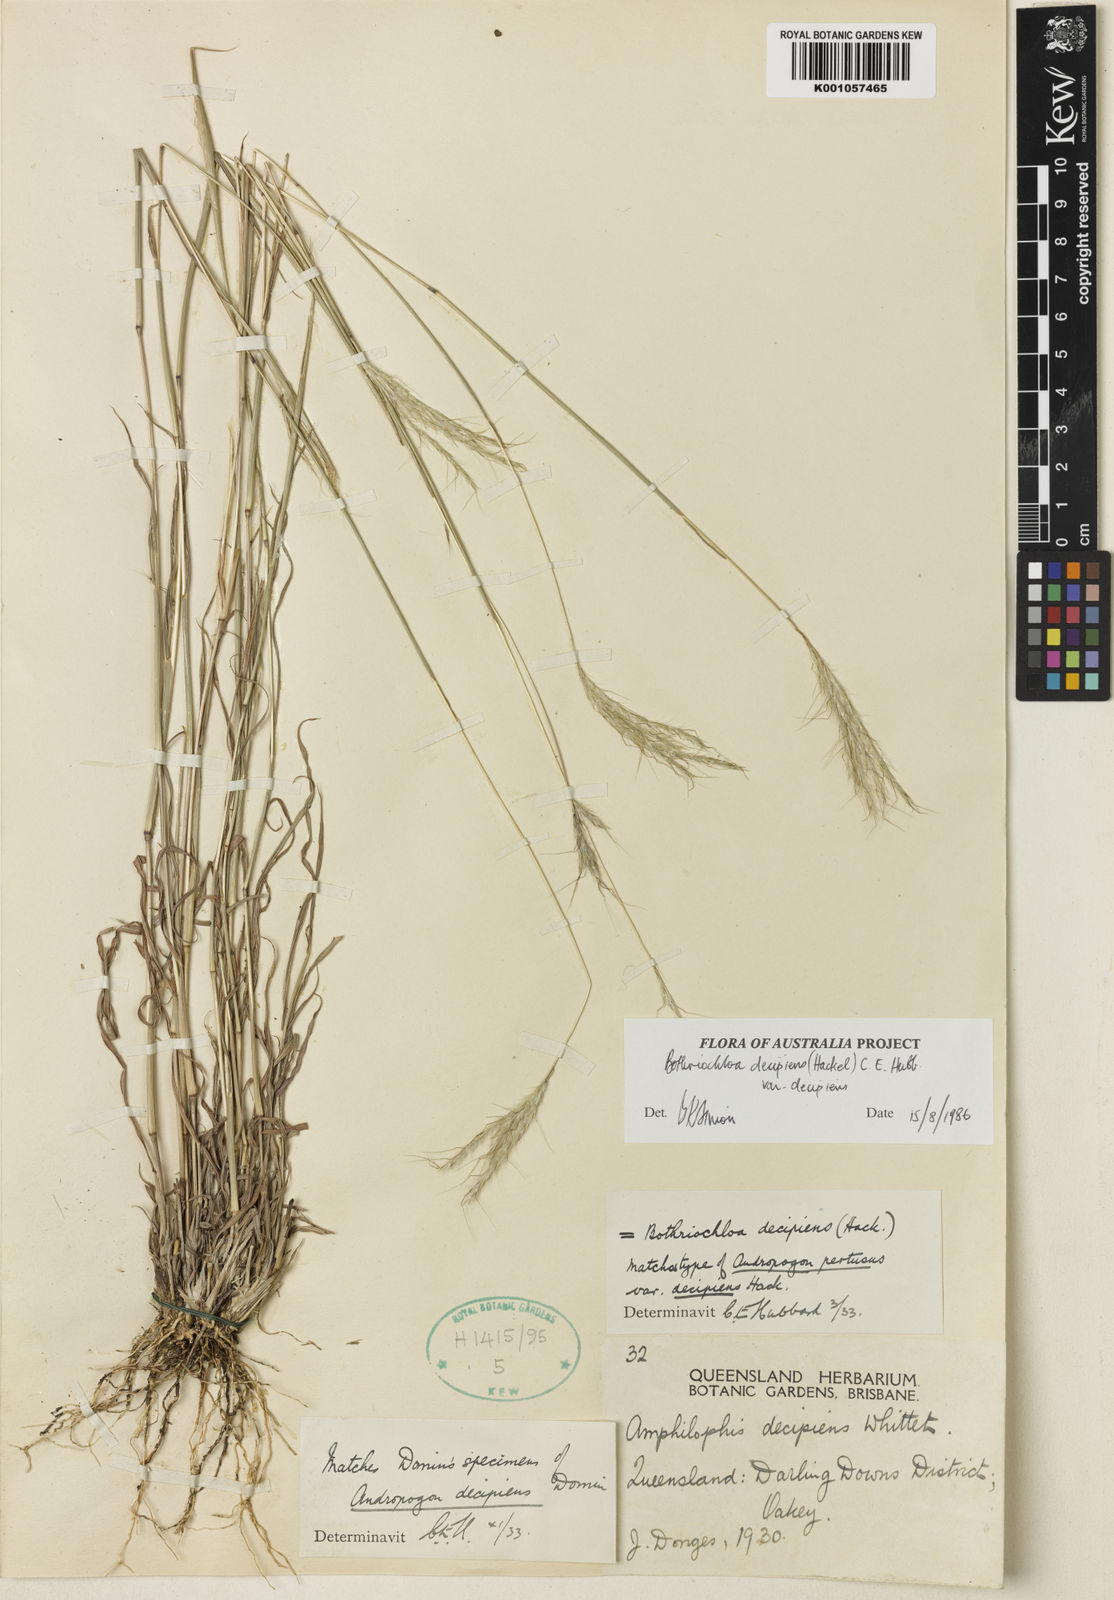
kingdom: Plantae
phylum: Tracheophyta
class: Liliopsida
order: Poales
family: Poaceae
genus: Bothriochloa
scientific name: Bothriochloa decipiens
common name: Pitted-bluegrass
